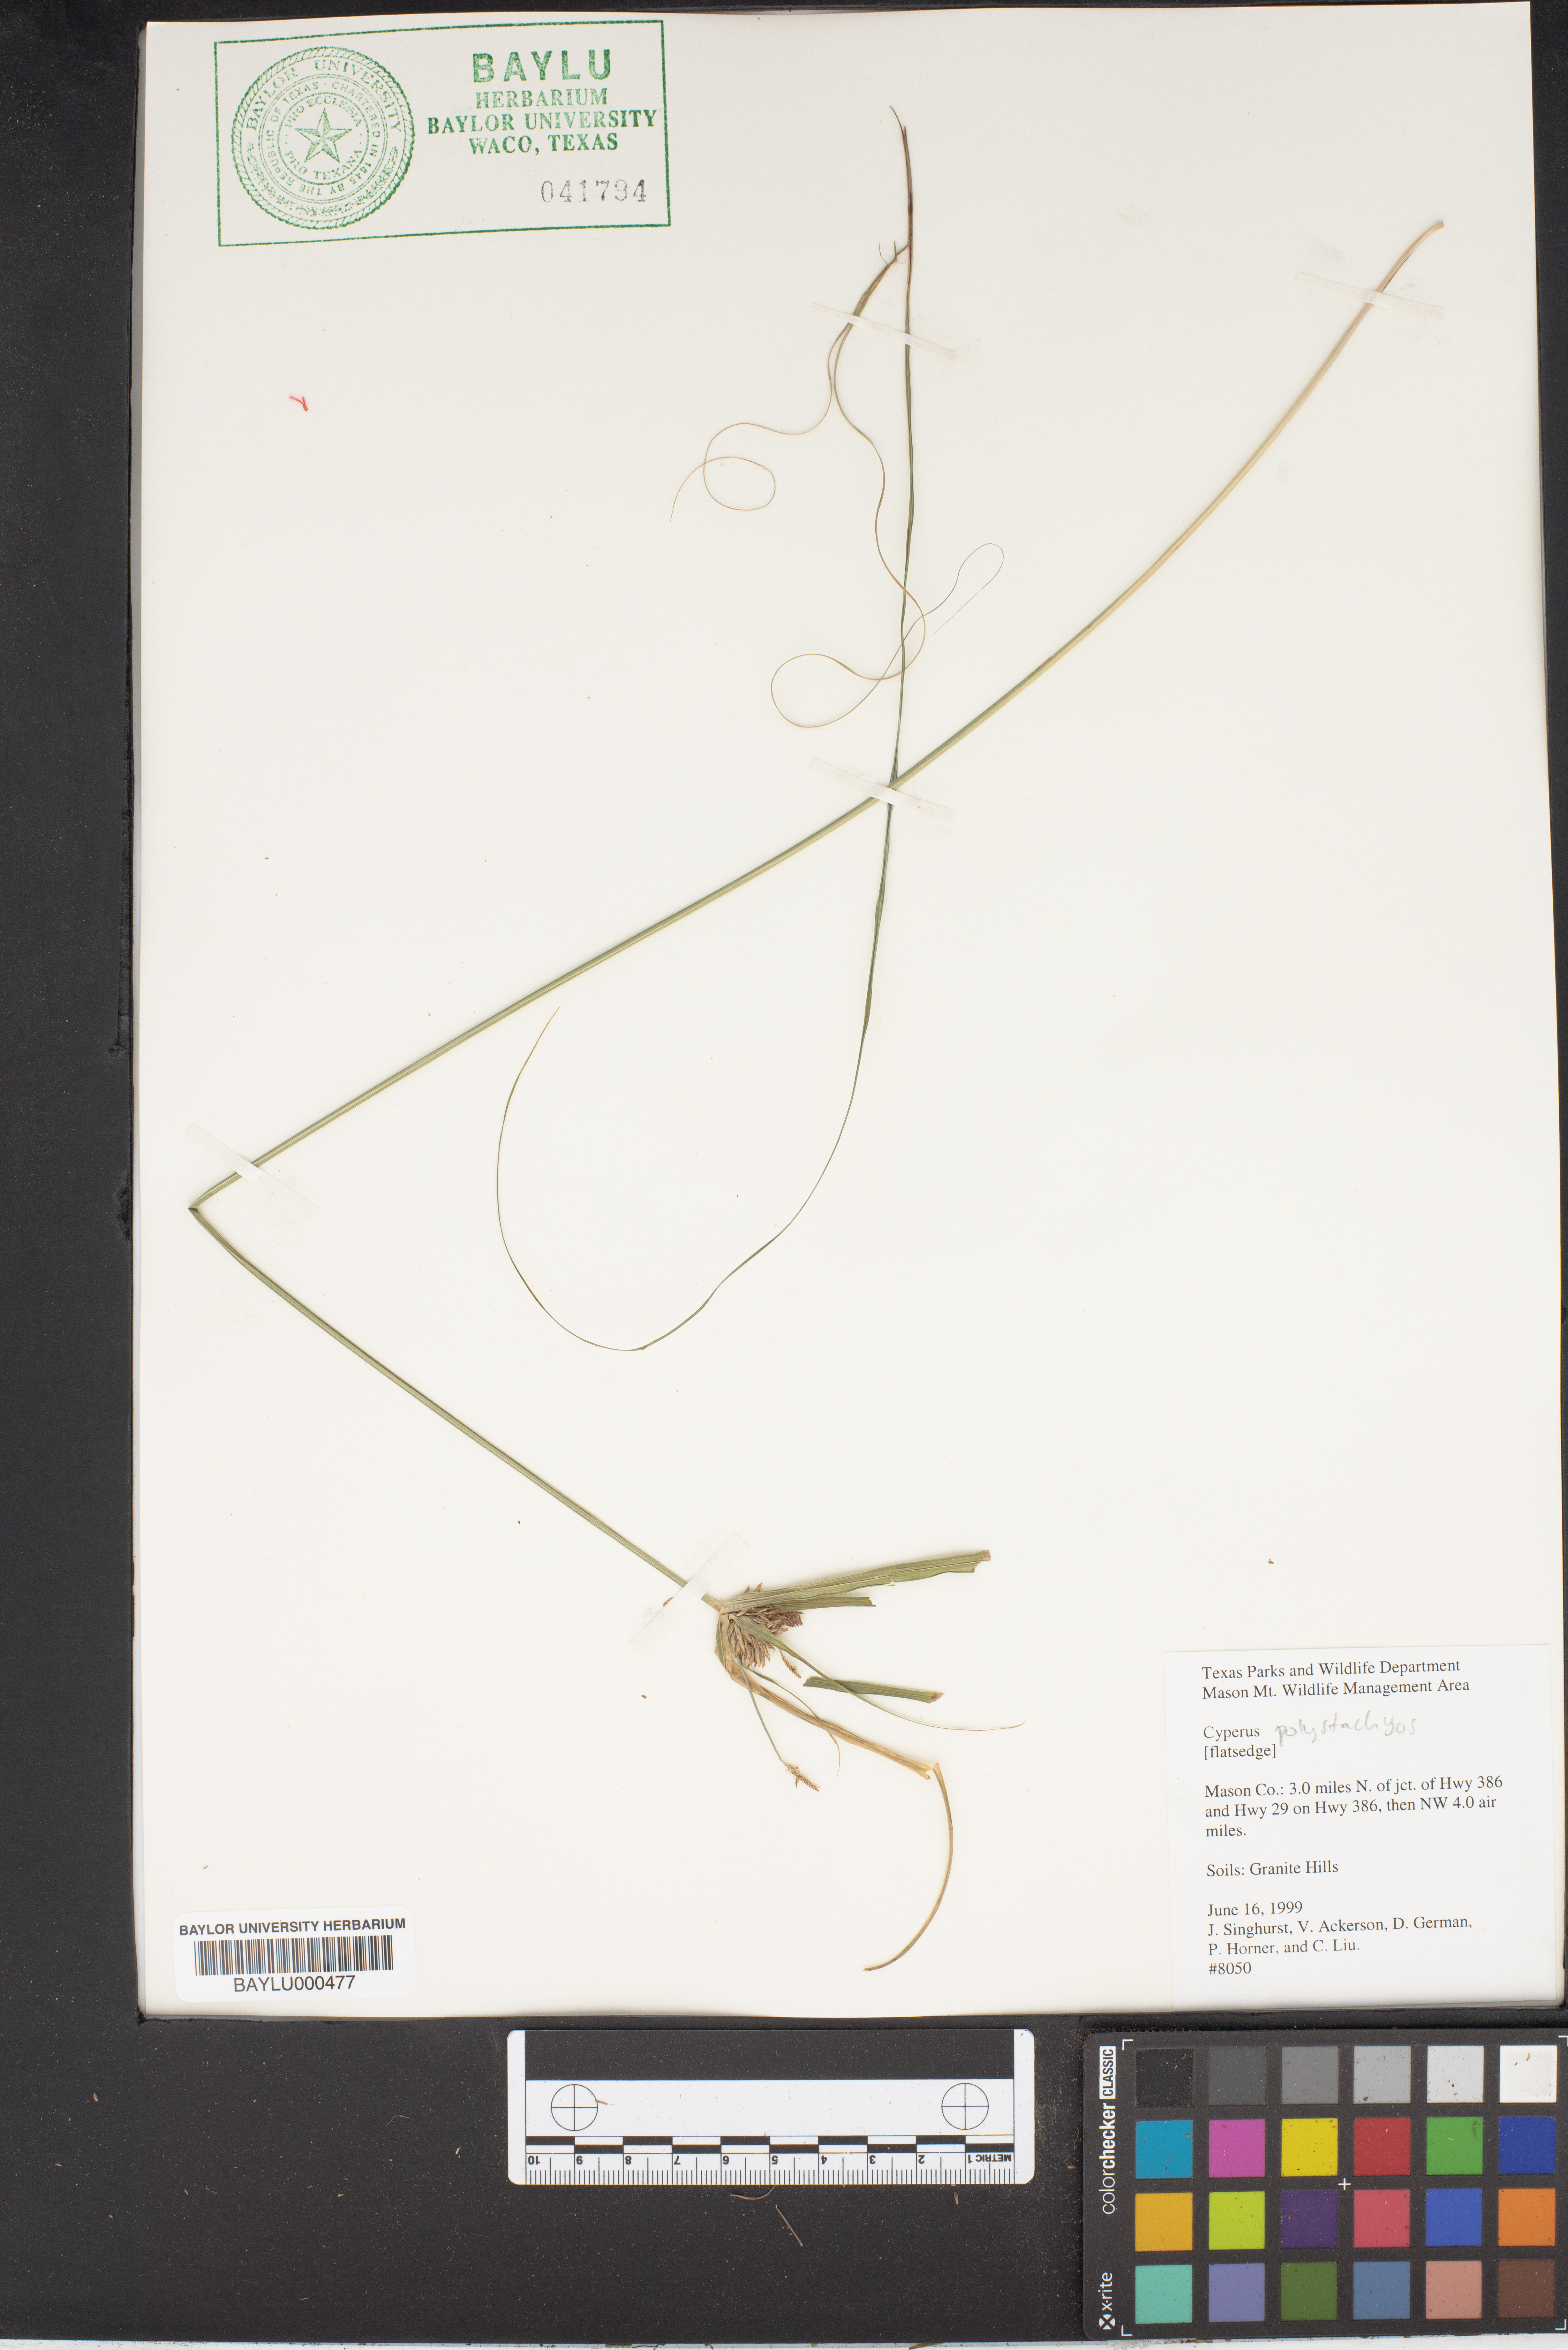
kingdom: Plantae
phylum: Tracheophyta
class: Liliopsida
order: Poales
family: Cyperaceae
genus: Cyperus
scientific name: Cyperus polystachyos
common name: Bunchy flat sedge
